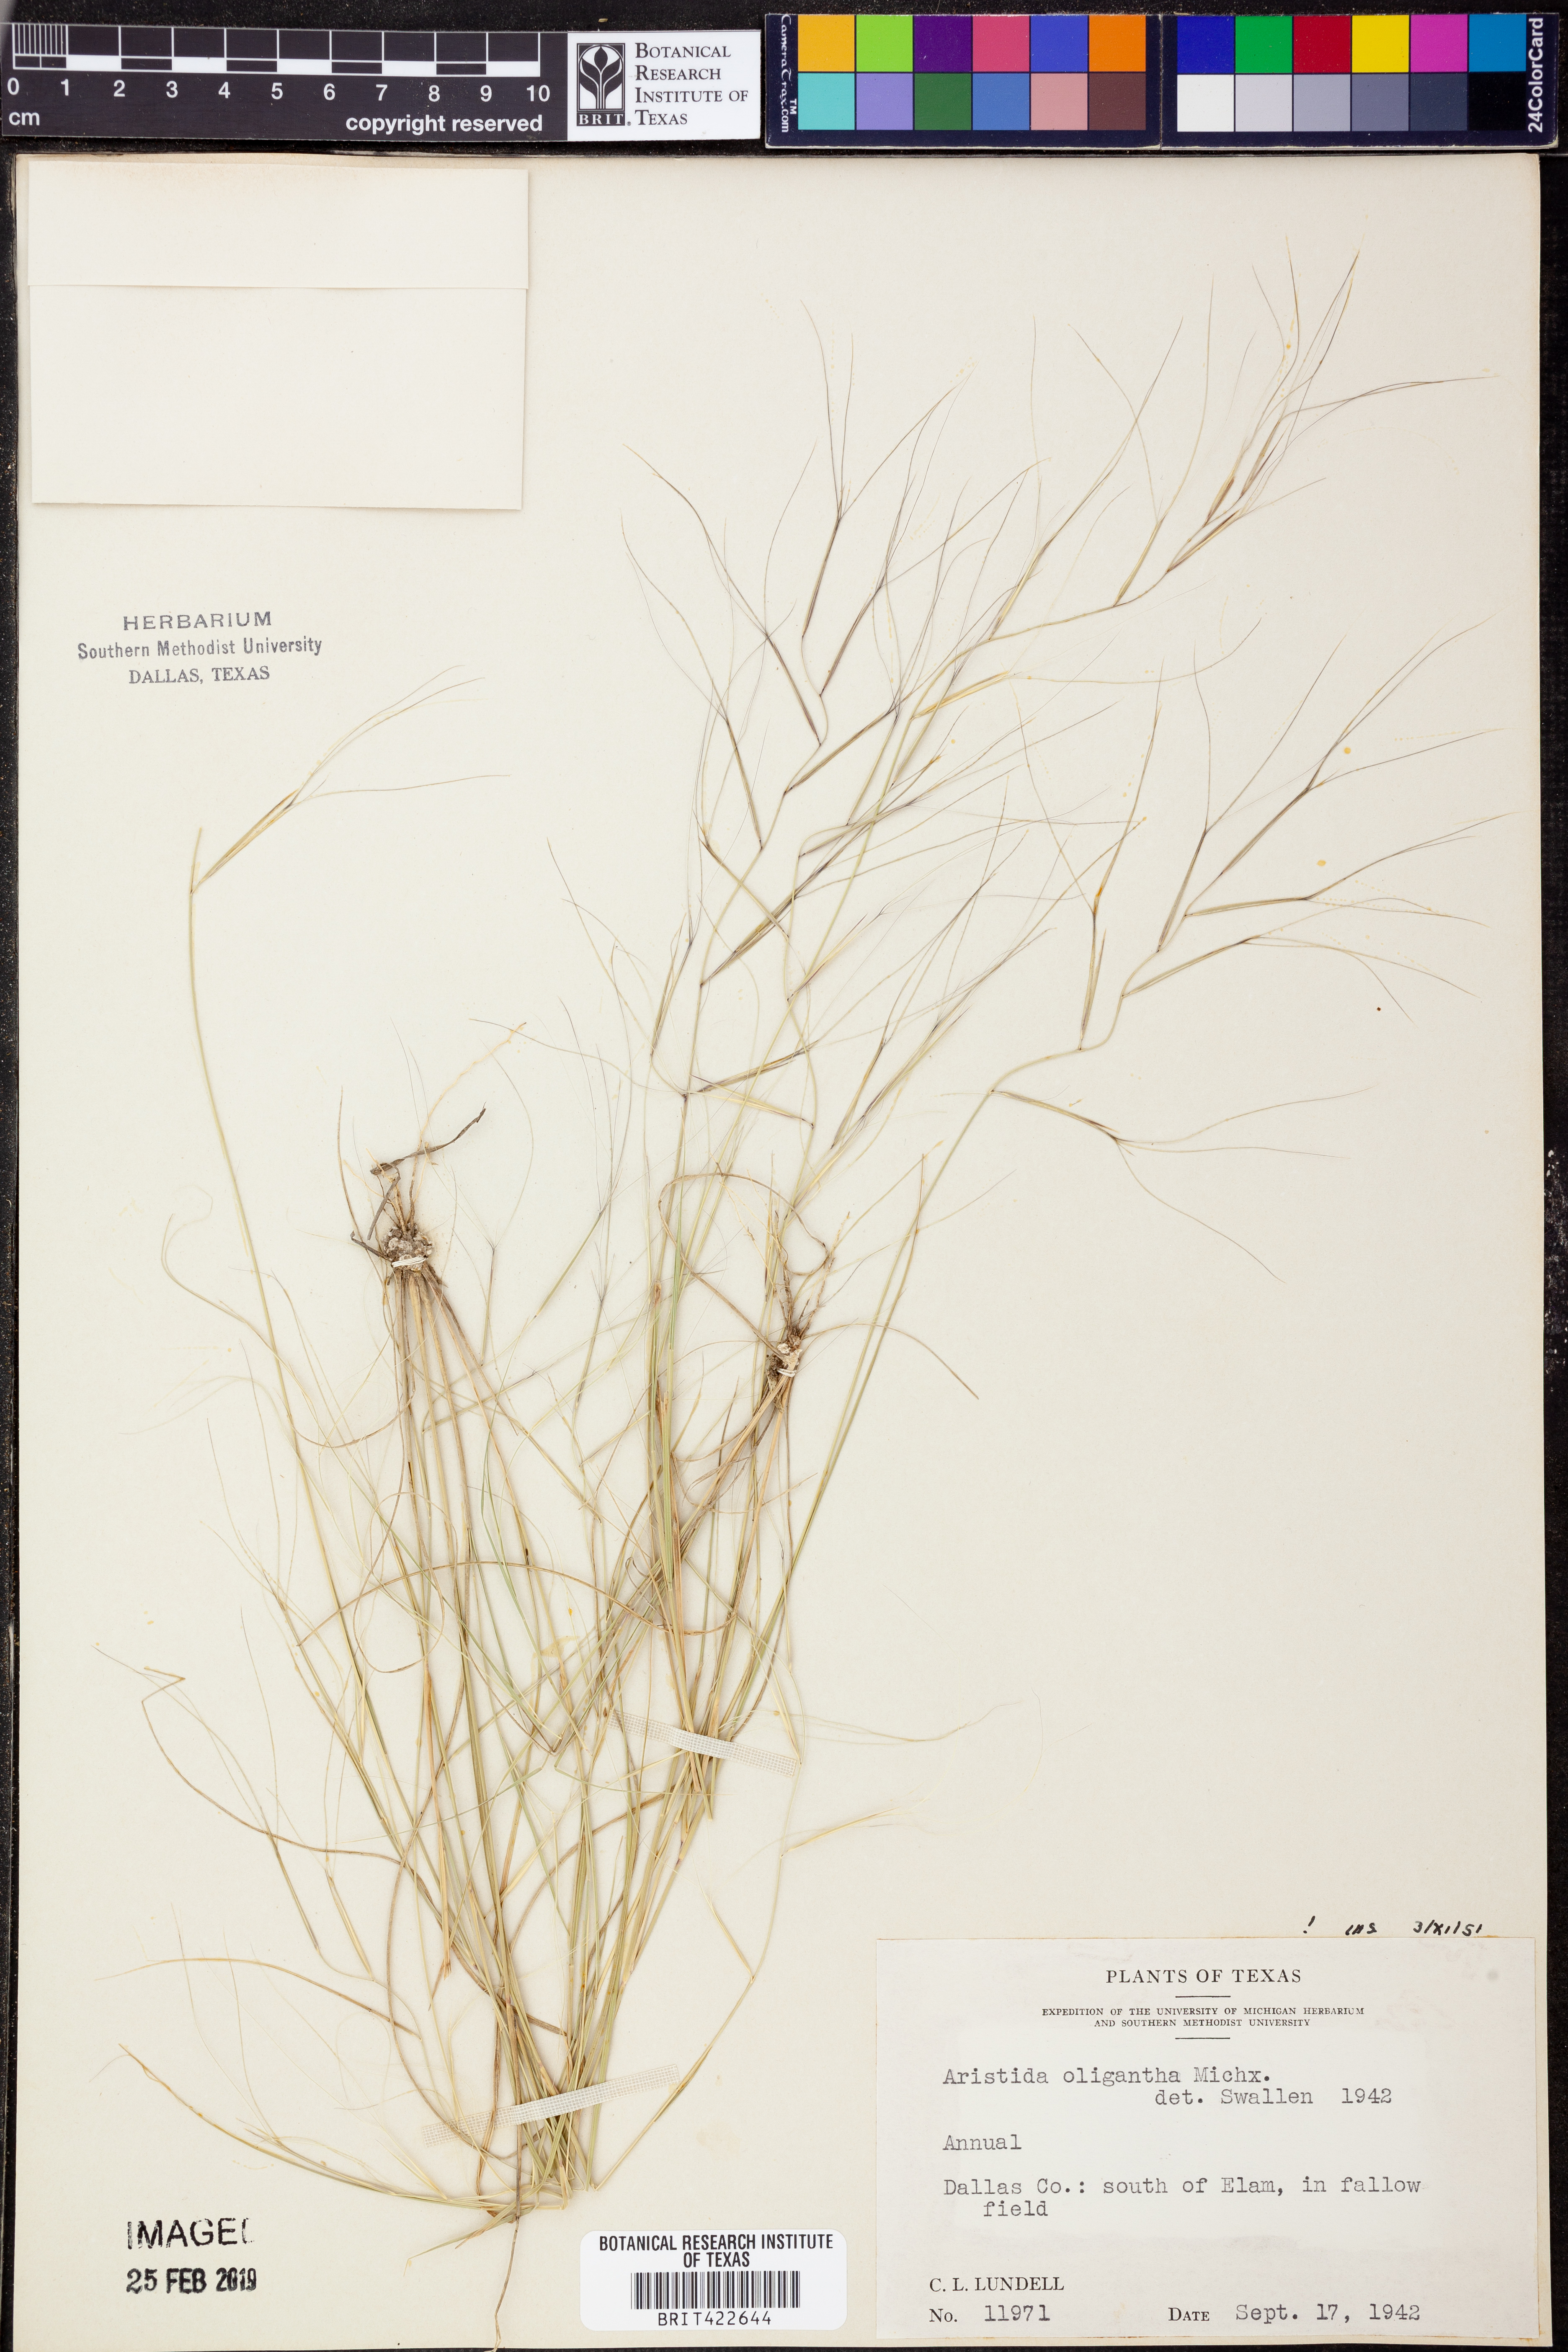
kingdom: Plantae
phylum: Tracheophyta
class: Liliopsida
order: Poales
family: Poaceae
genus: Aristida
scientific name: Aristida oligantha
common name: Few-flowered aristida
